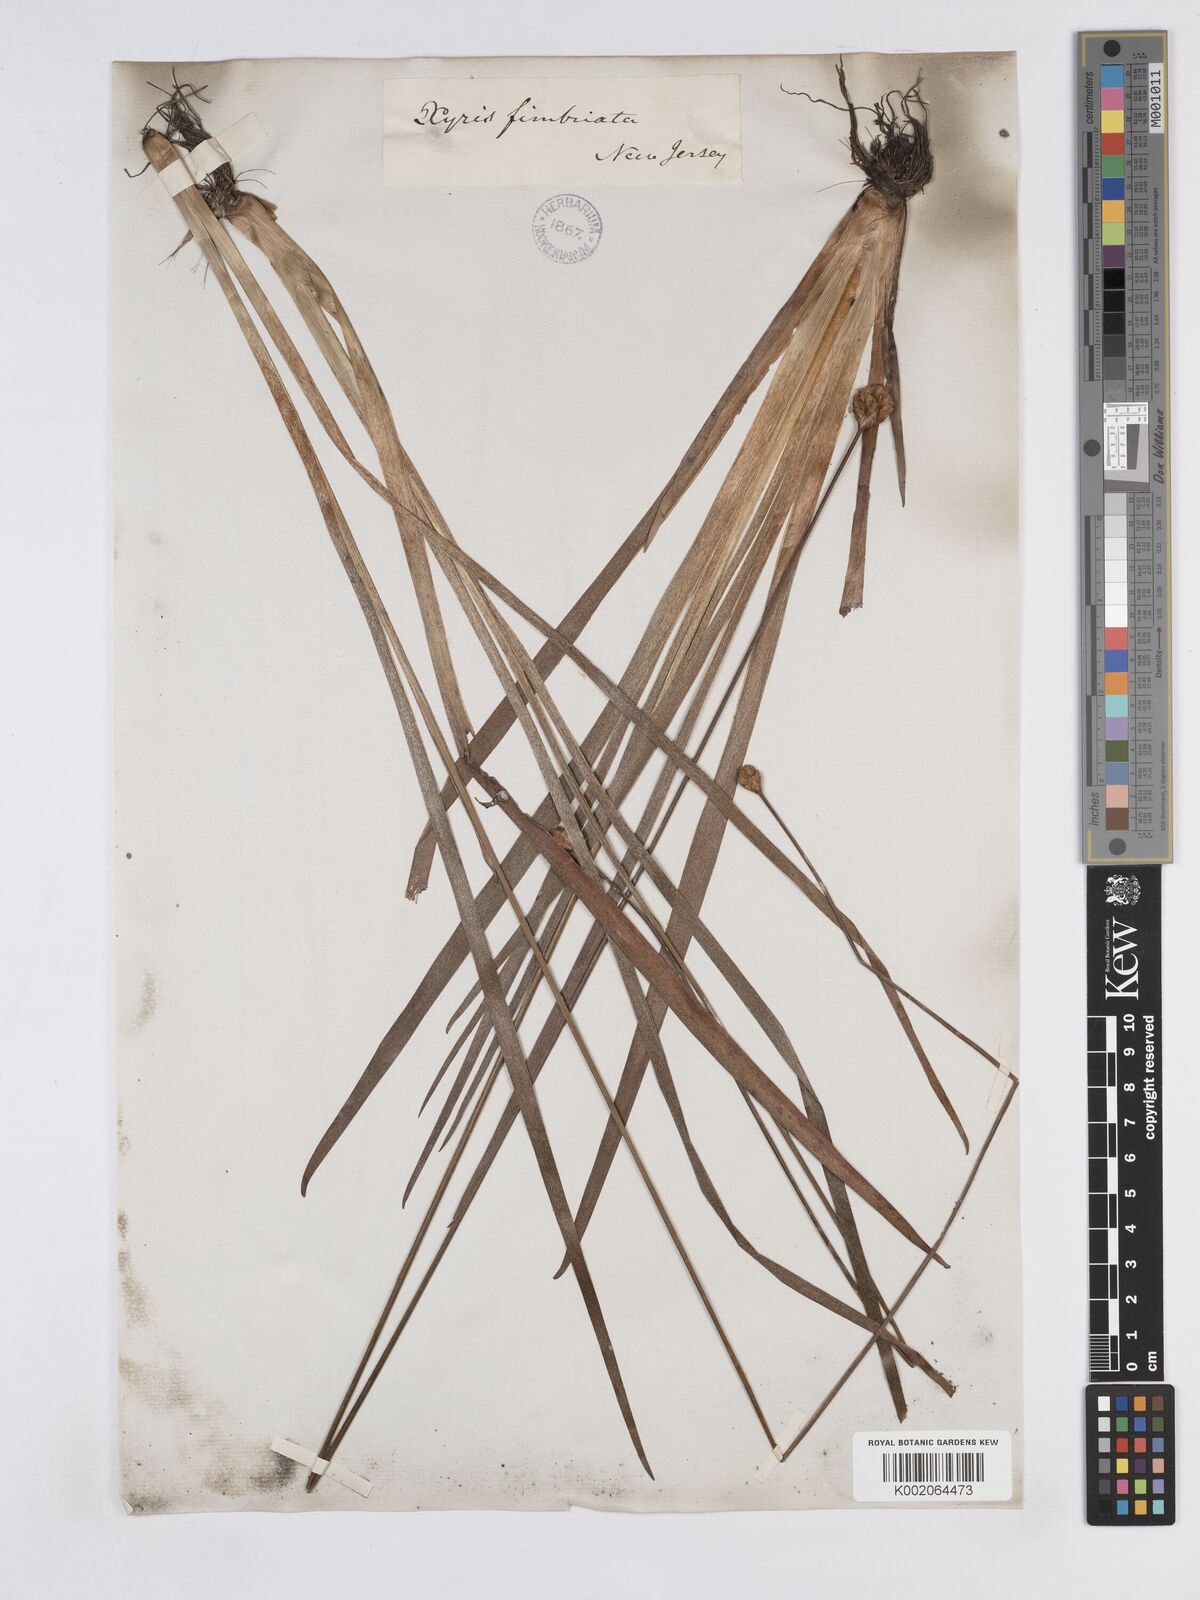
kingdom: Plantae
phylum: Tracheophyta
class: Liliopsida
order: Poales
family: Xyridaceae
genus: Xyris
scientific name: Xyris fimbriata
